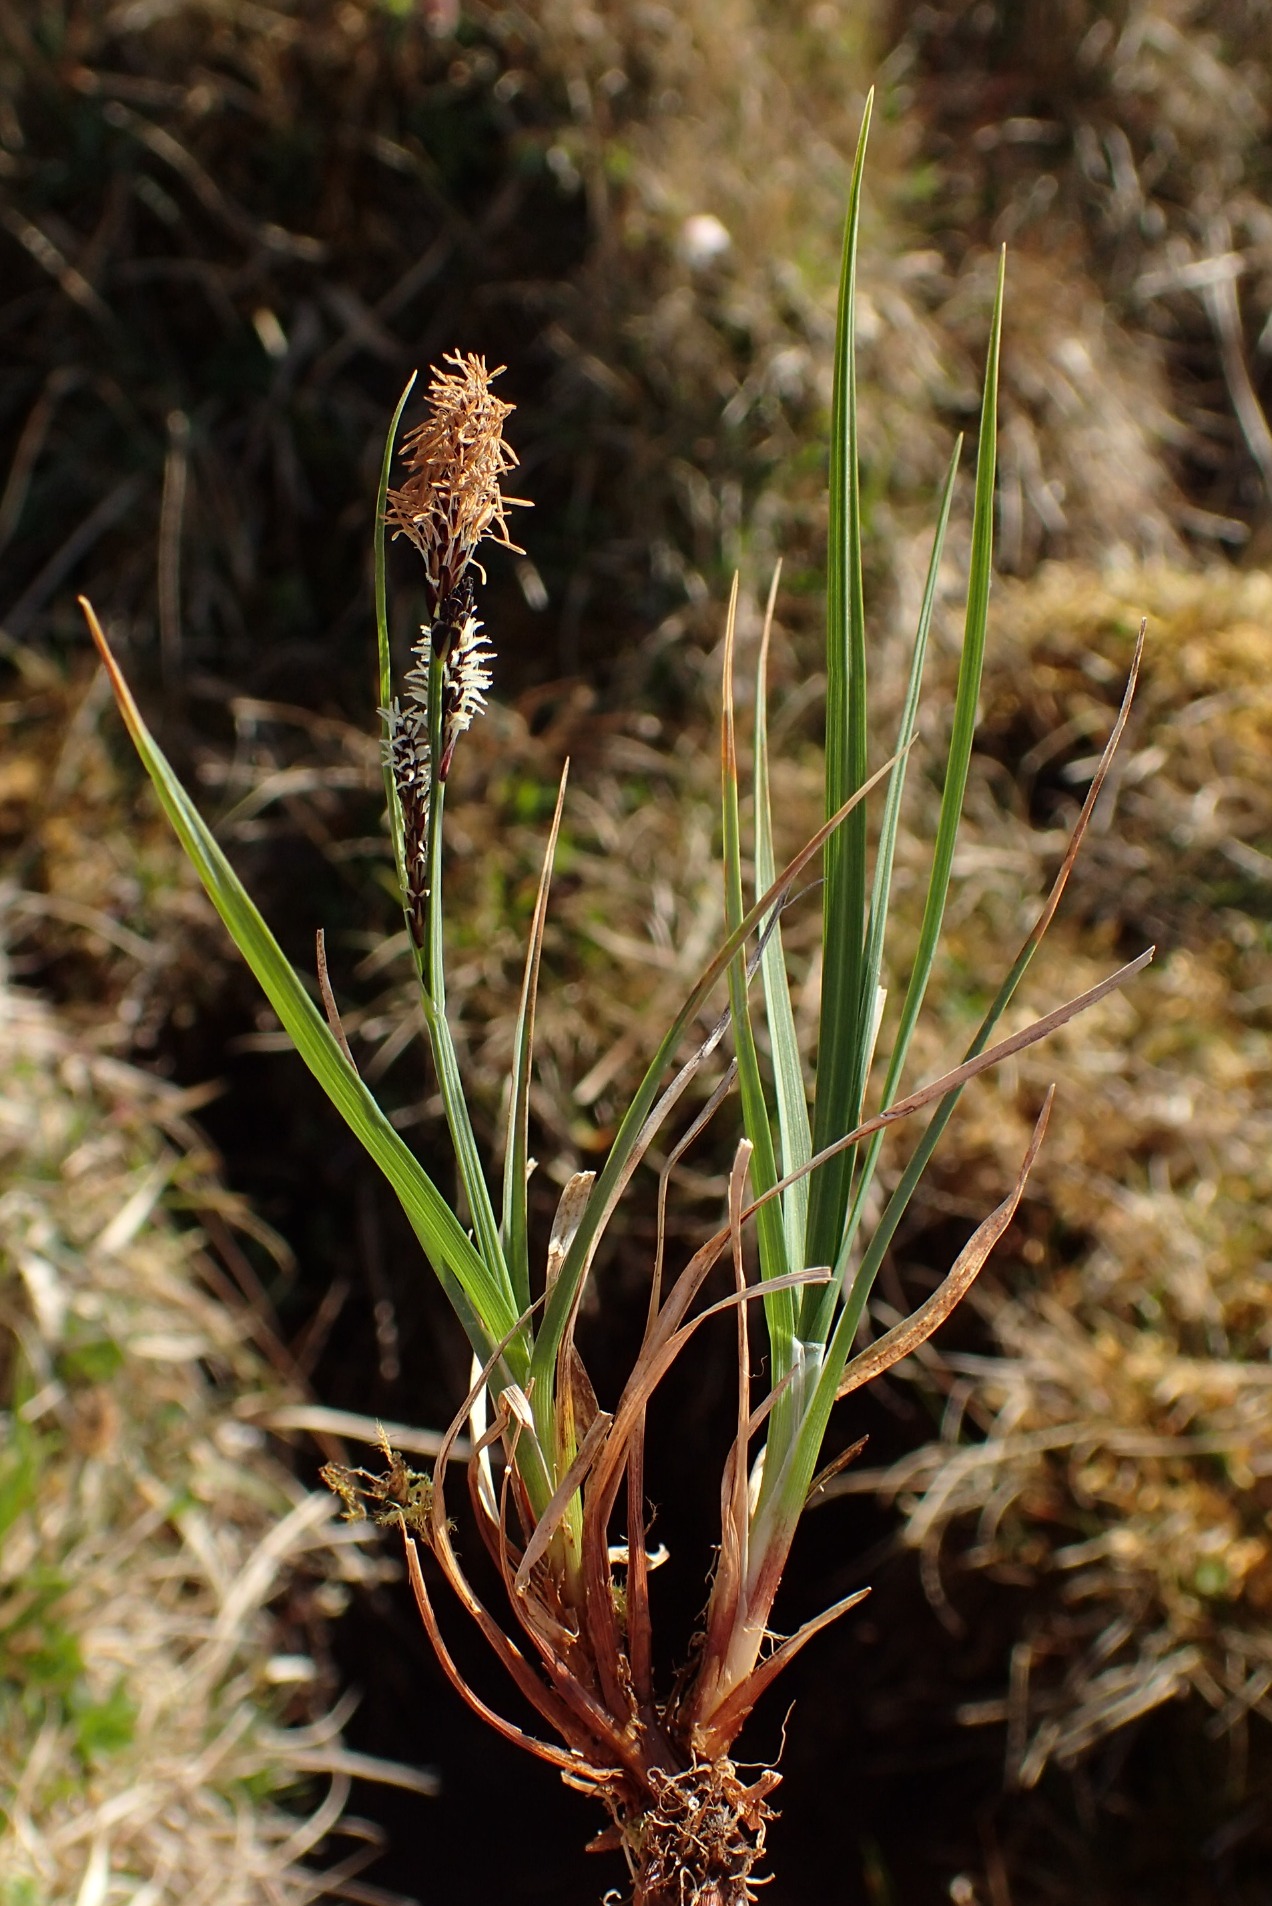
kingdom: Plantae
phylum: Tracheophyta
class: Liliopsida
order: Poales
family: Cyperaceae
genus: Carex
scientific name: Carex nigra
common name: Almindelig star
